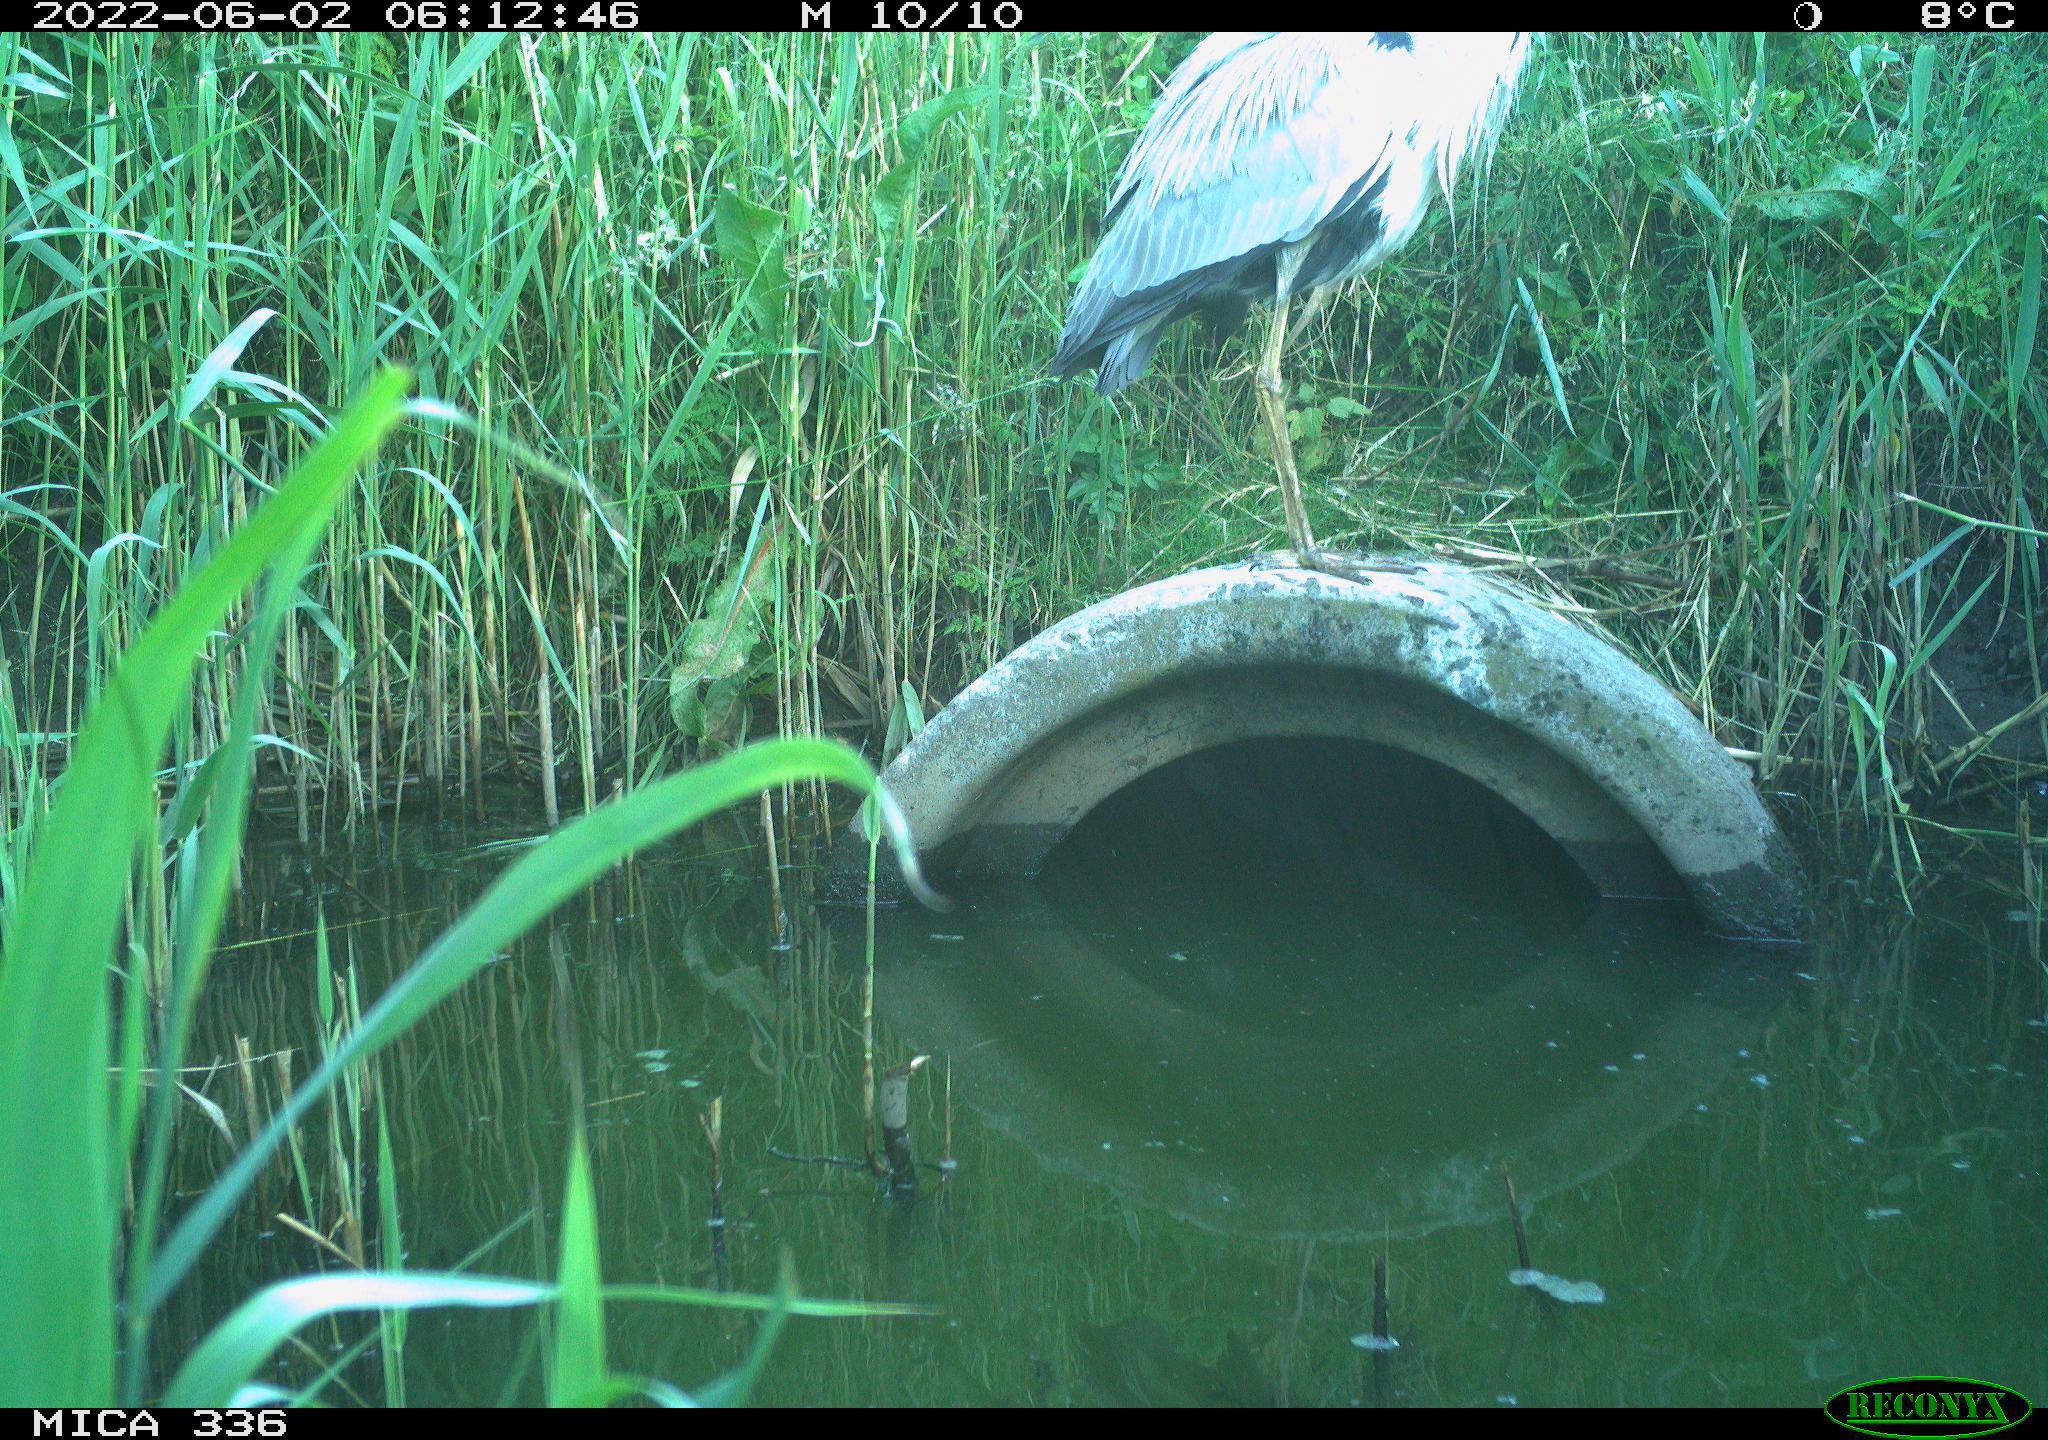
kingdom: Animalia
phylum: Chordata
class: Aves
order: Pelecaniformes
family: Ardeidae
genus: Ardea
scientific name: Ardea
